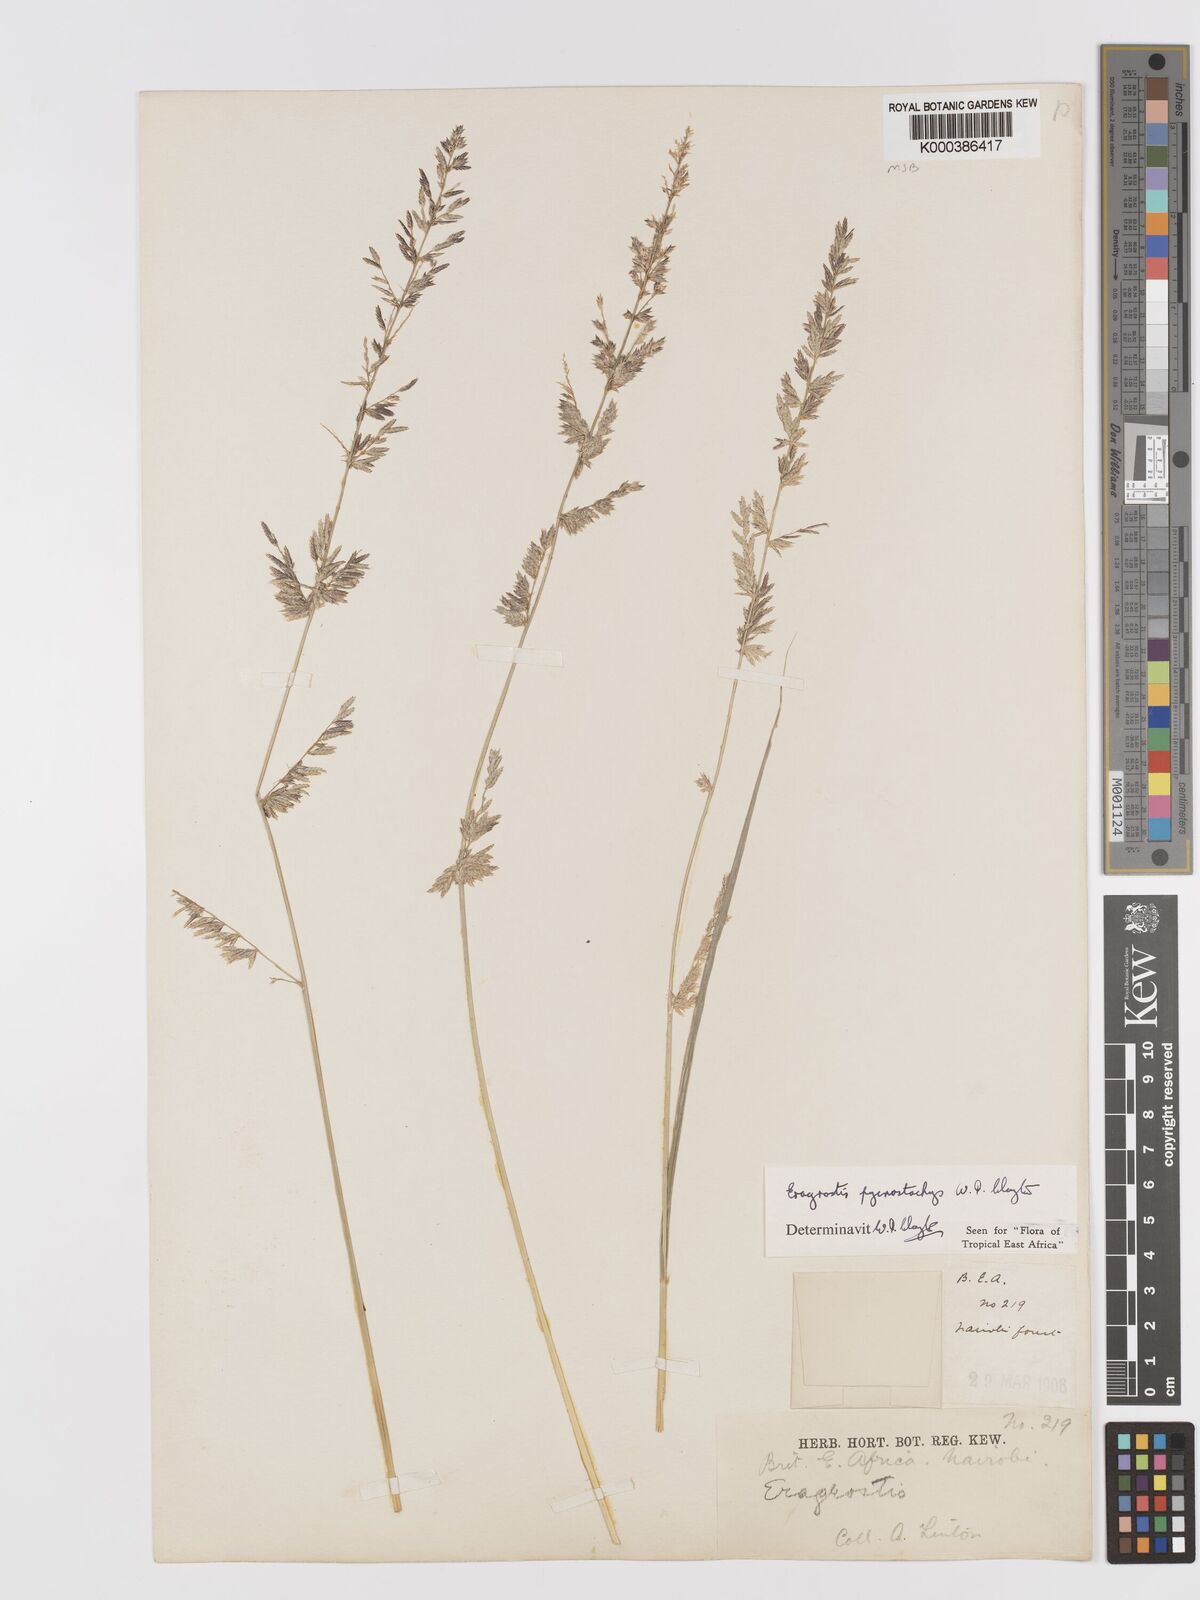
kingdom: Plantae
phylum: Tracheophyta
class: Liliopsida
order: Poales
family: Poaceae
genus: Eragrostis
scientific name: Eragrostis pycnostachys
